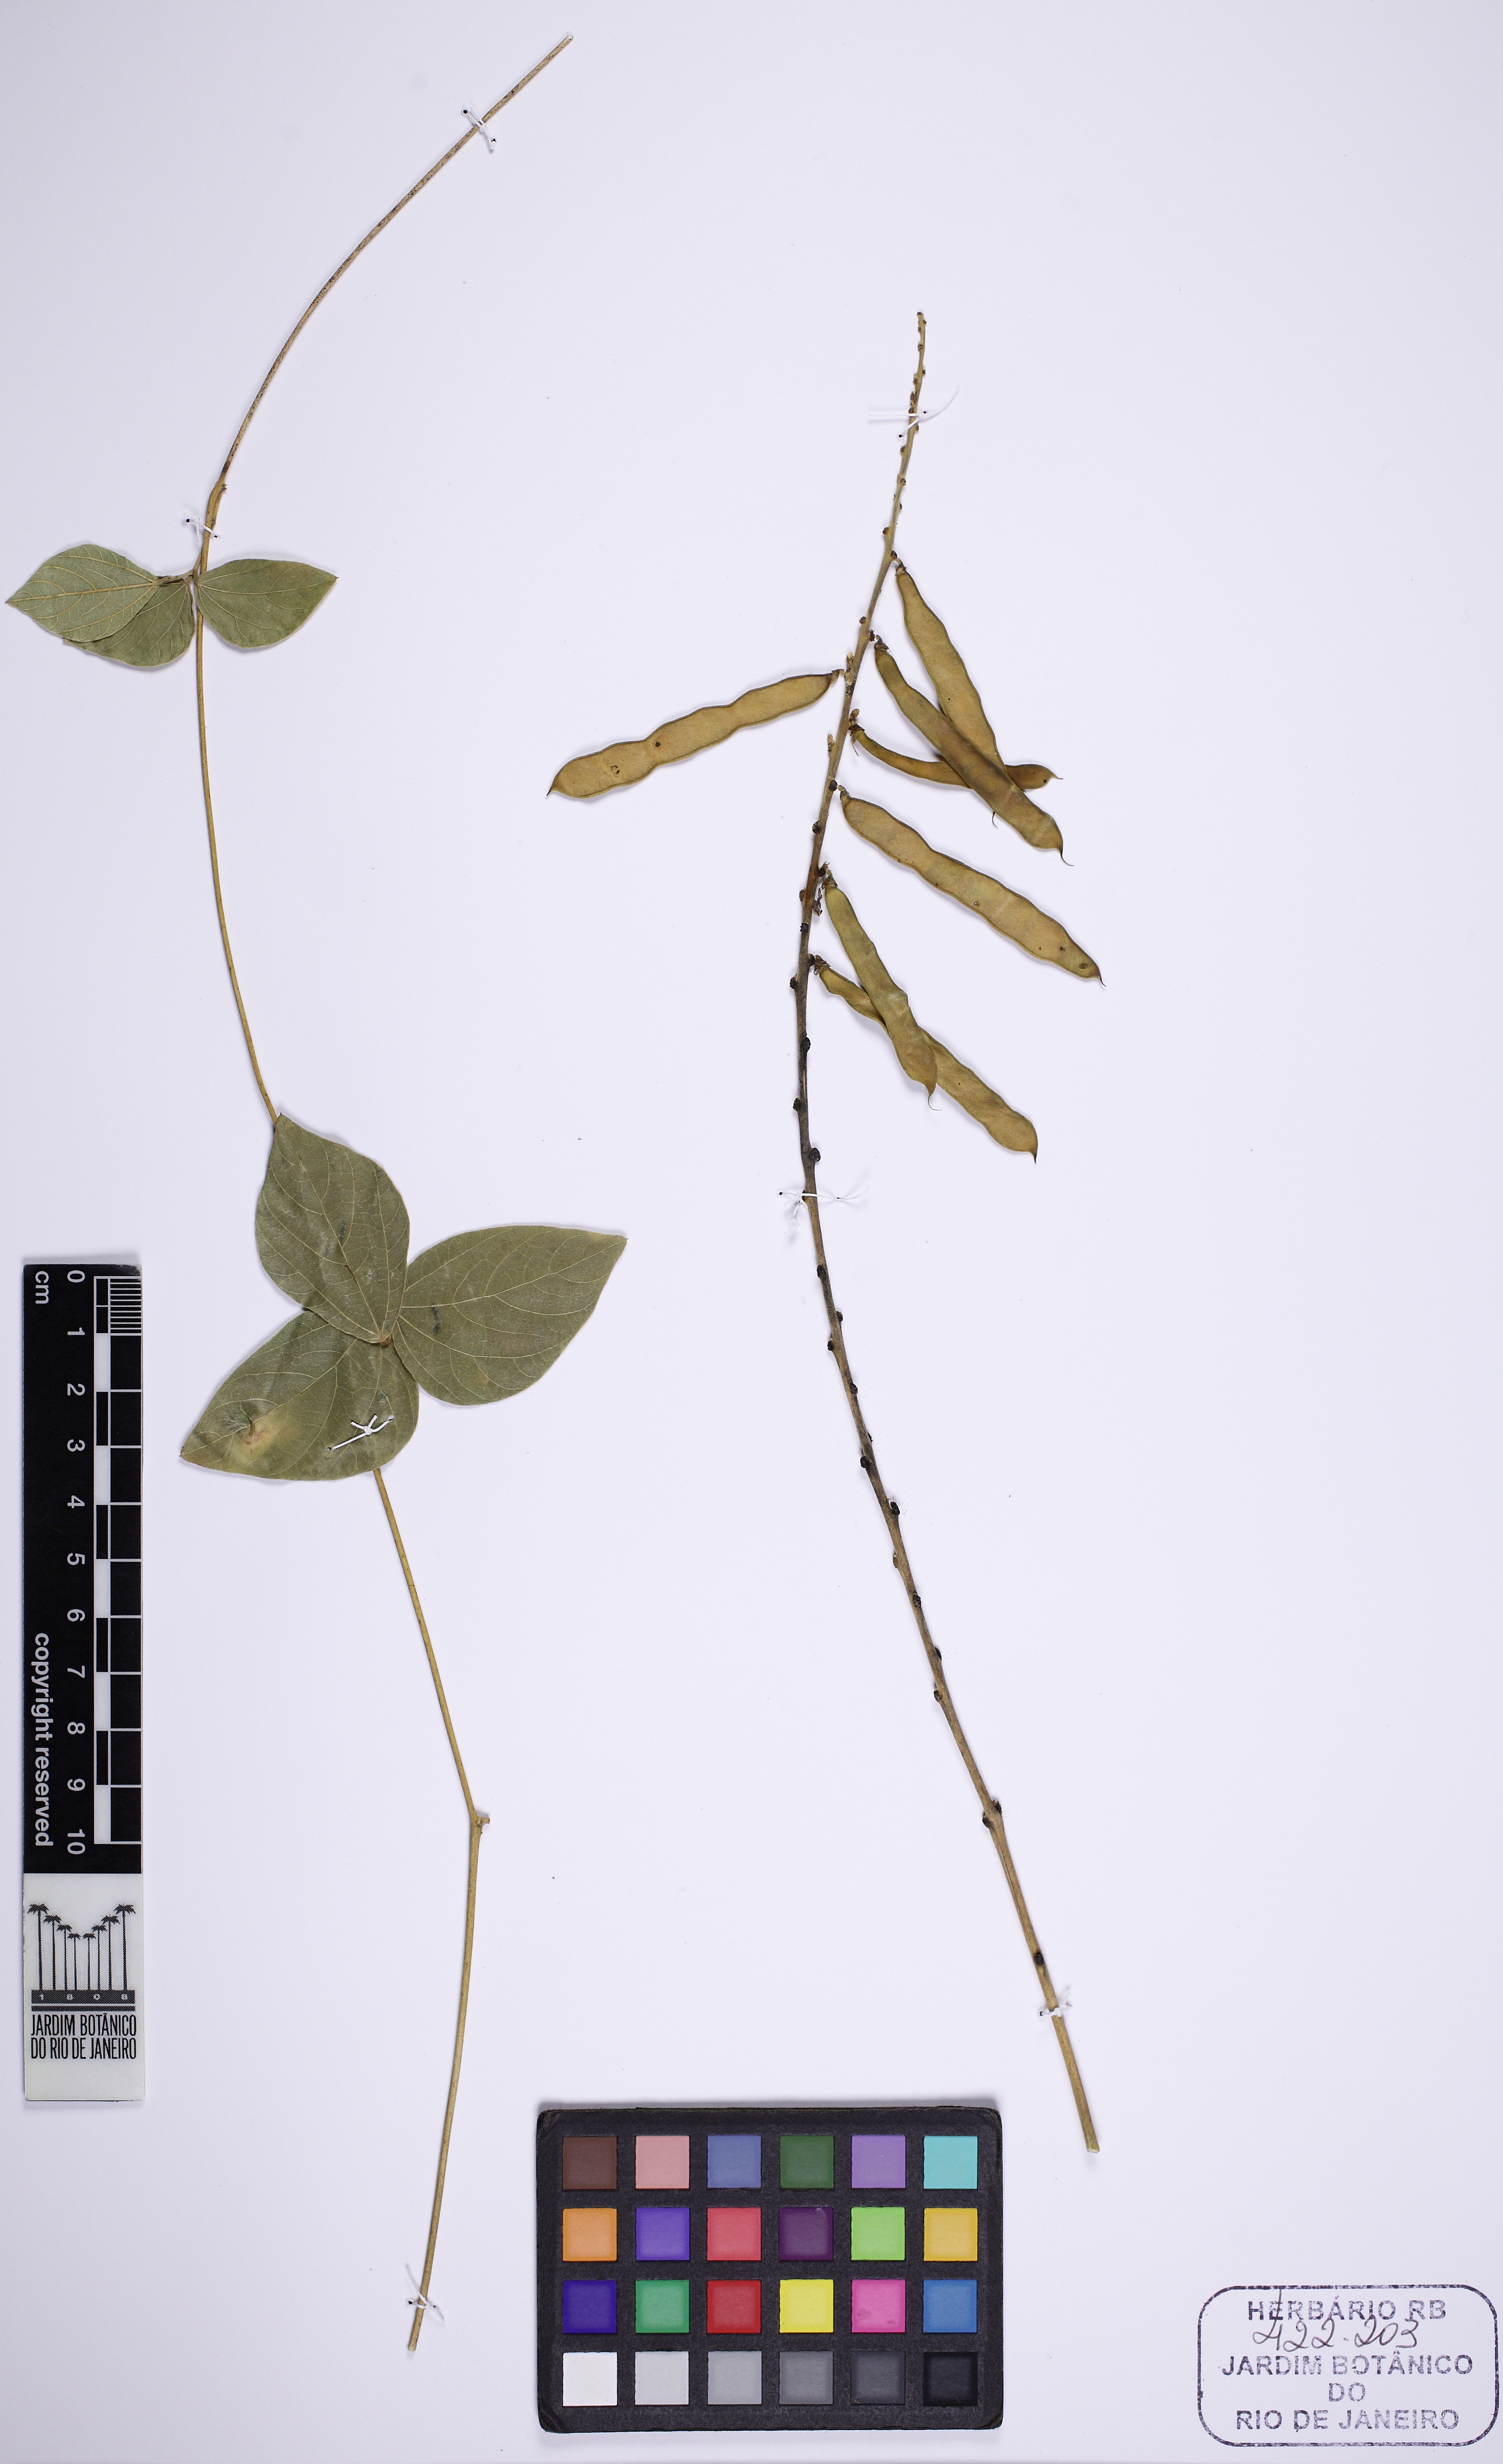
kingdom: Plantae
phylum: Tracheophyta
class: Magnoliopsida
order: Fabales
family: Fabaceae
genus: Calopogonium
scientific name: Calopogonium
